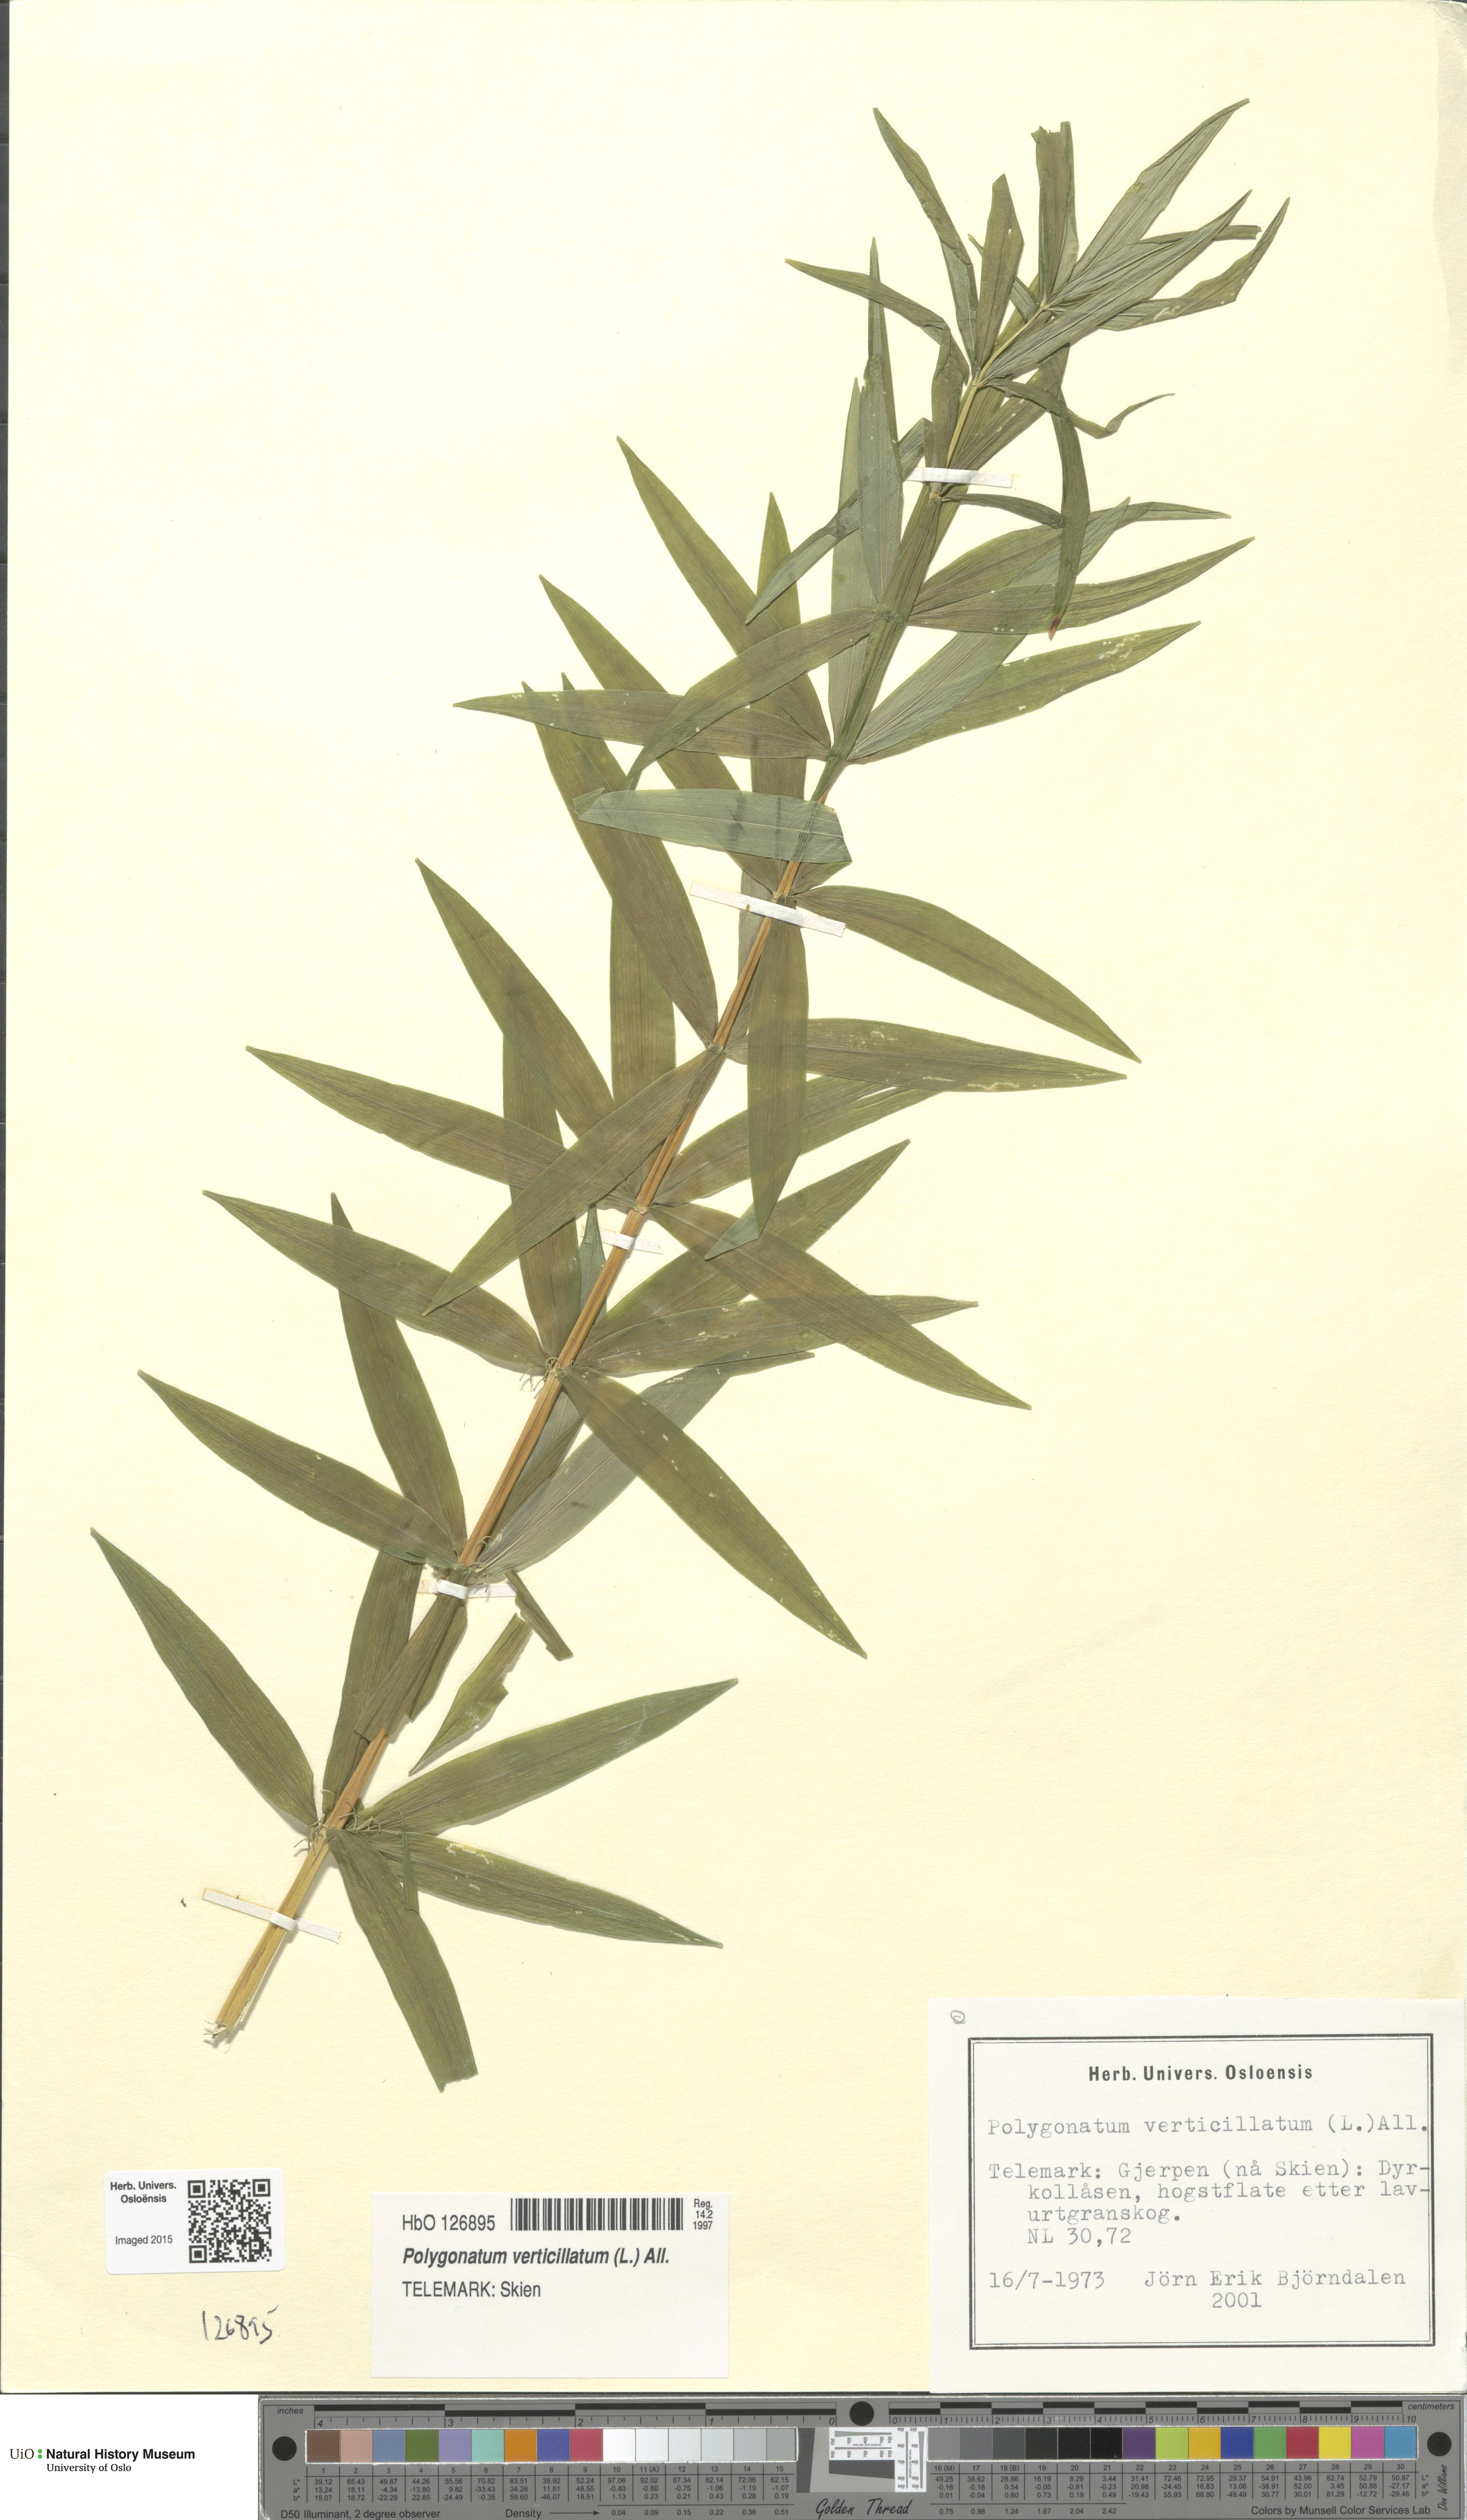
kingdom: Plantae
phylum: Tracheophyta
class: Liliopsida
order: Asparagales
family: Asparagaceae
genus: Polygonatum
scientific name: Polygonatum verticillatum
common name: Whorled solomon's-seal
